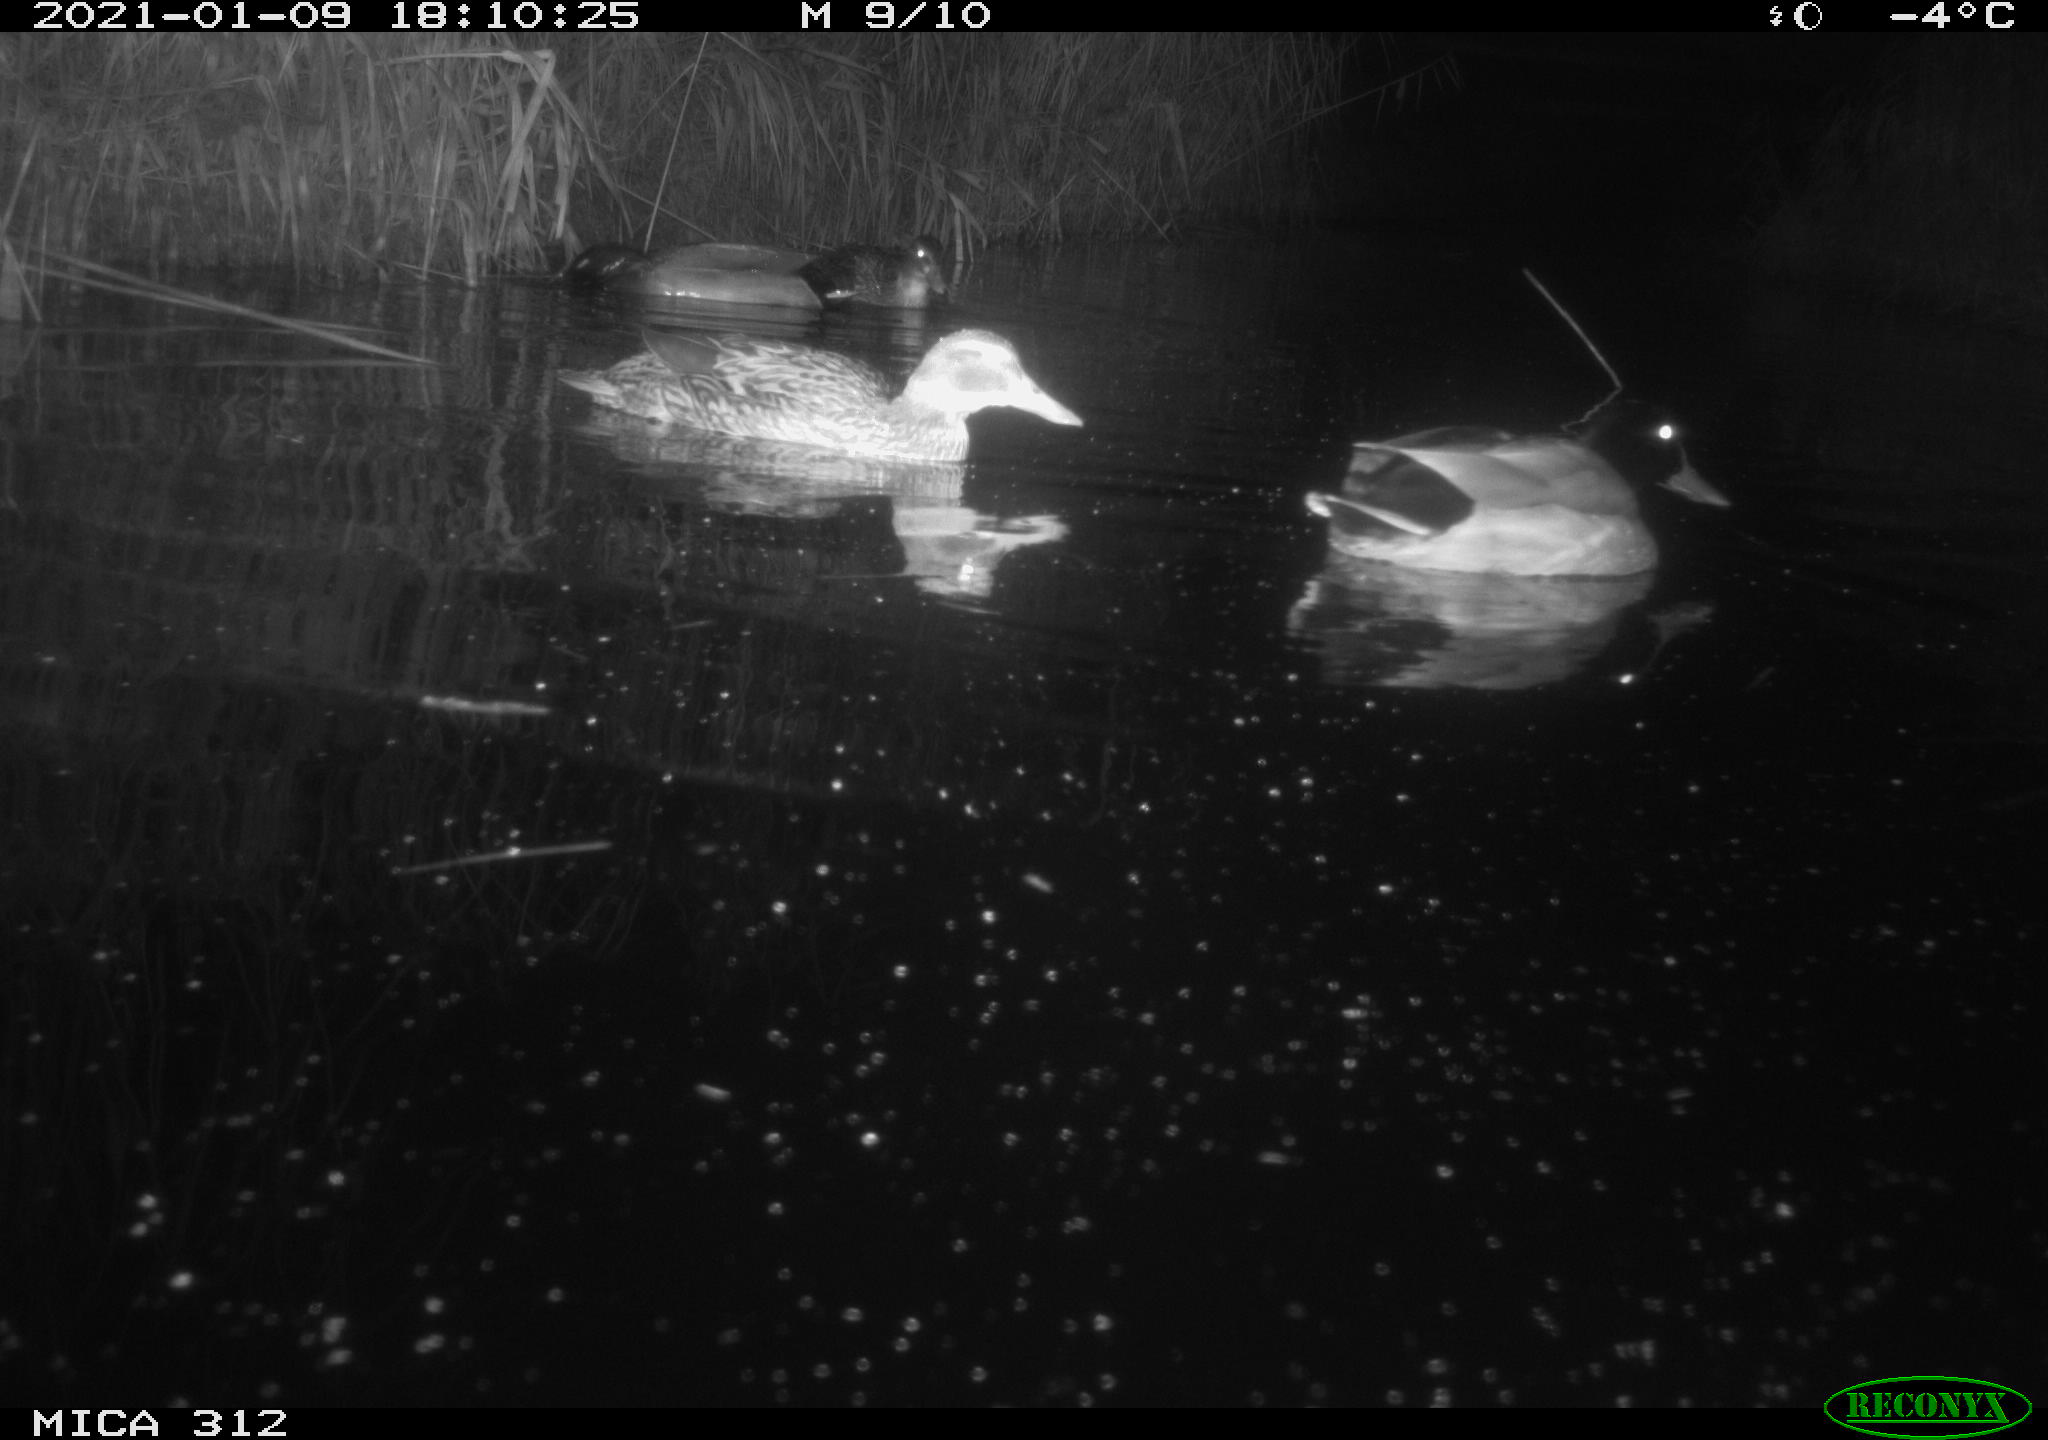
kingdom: Animalia
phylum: Chordata
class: Aves
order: Anseriformes
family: Anatidae
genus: Anas
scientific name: Anas platyrhynchos
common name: Mallard
